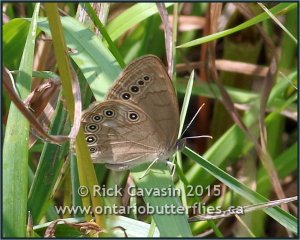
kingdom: Animalia
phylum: Arthropoda
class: Insecta
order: Lepidoptera
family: Nymphalidae
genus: Lethe
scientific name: Lethe eurydice
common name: Eyed Brown
